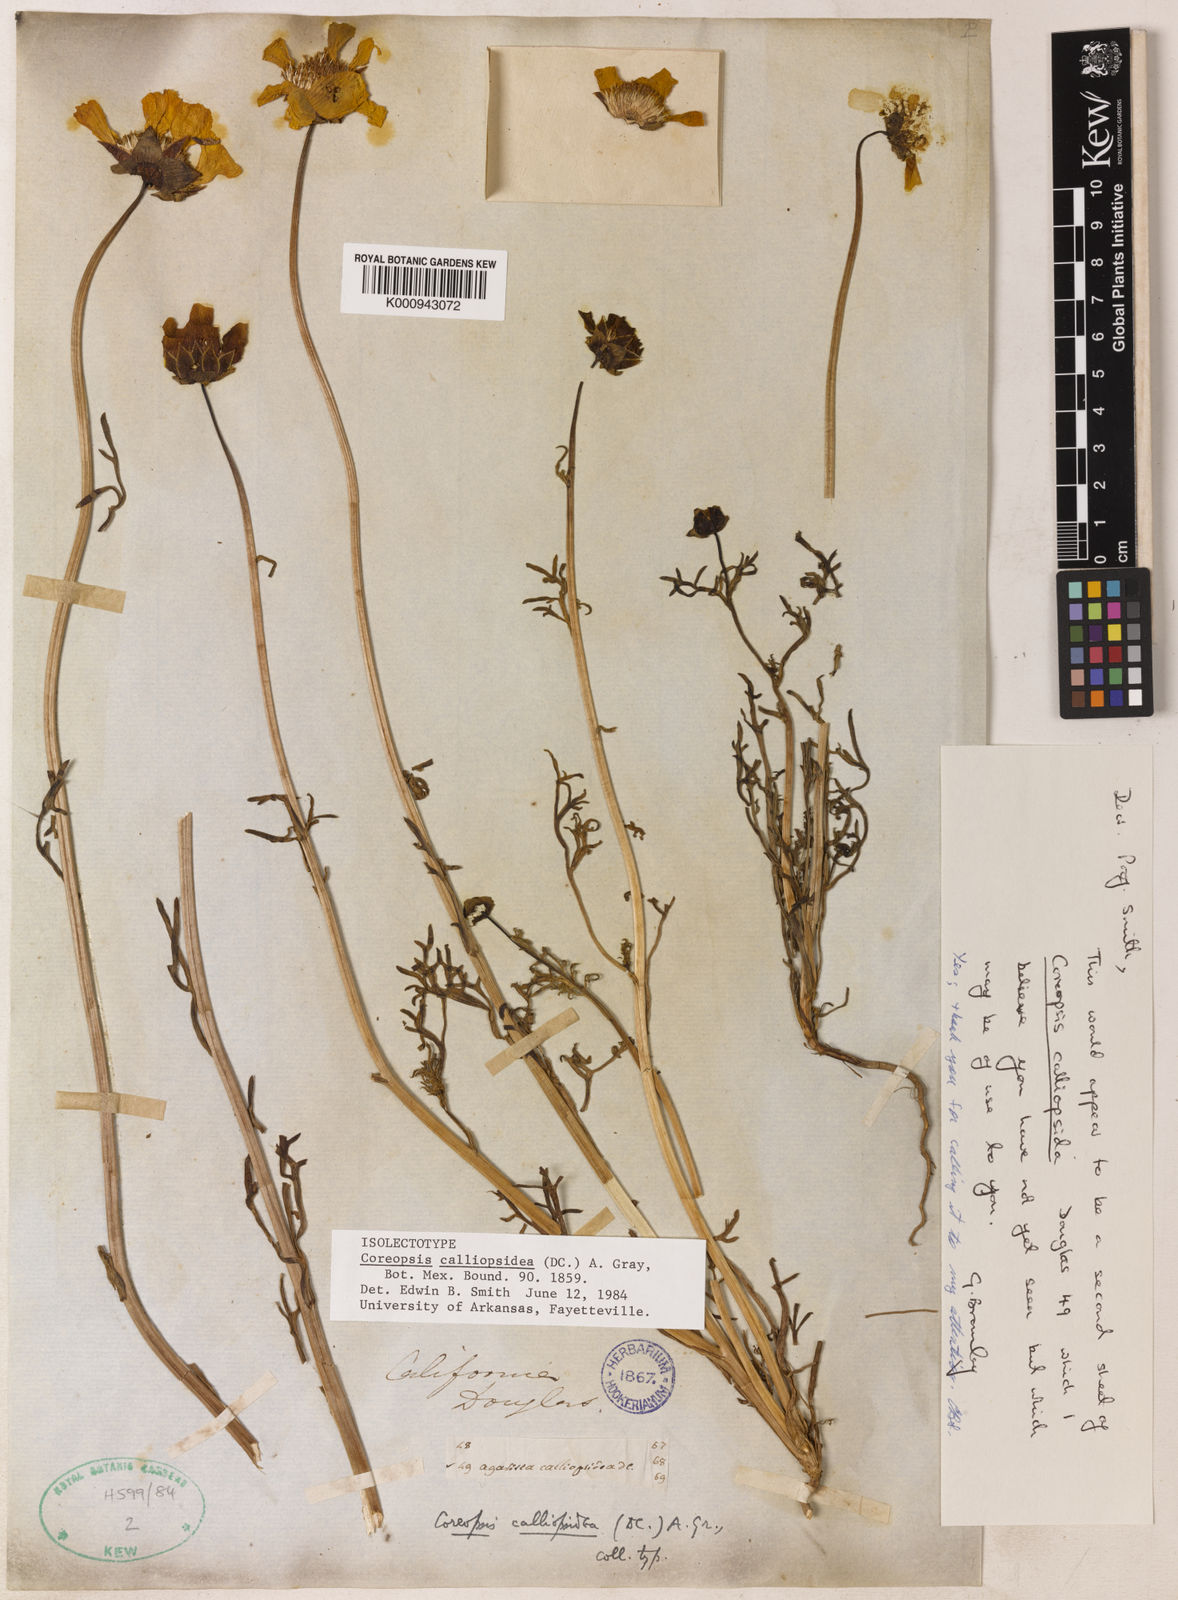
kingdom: Plantae
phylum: Tracheophyta
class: Magnoliopsida
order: Asterales
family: Asteraceae
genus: Coreopsis
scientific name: Coreopsis calliopsidea
